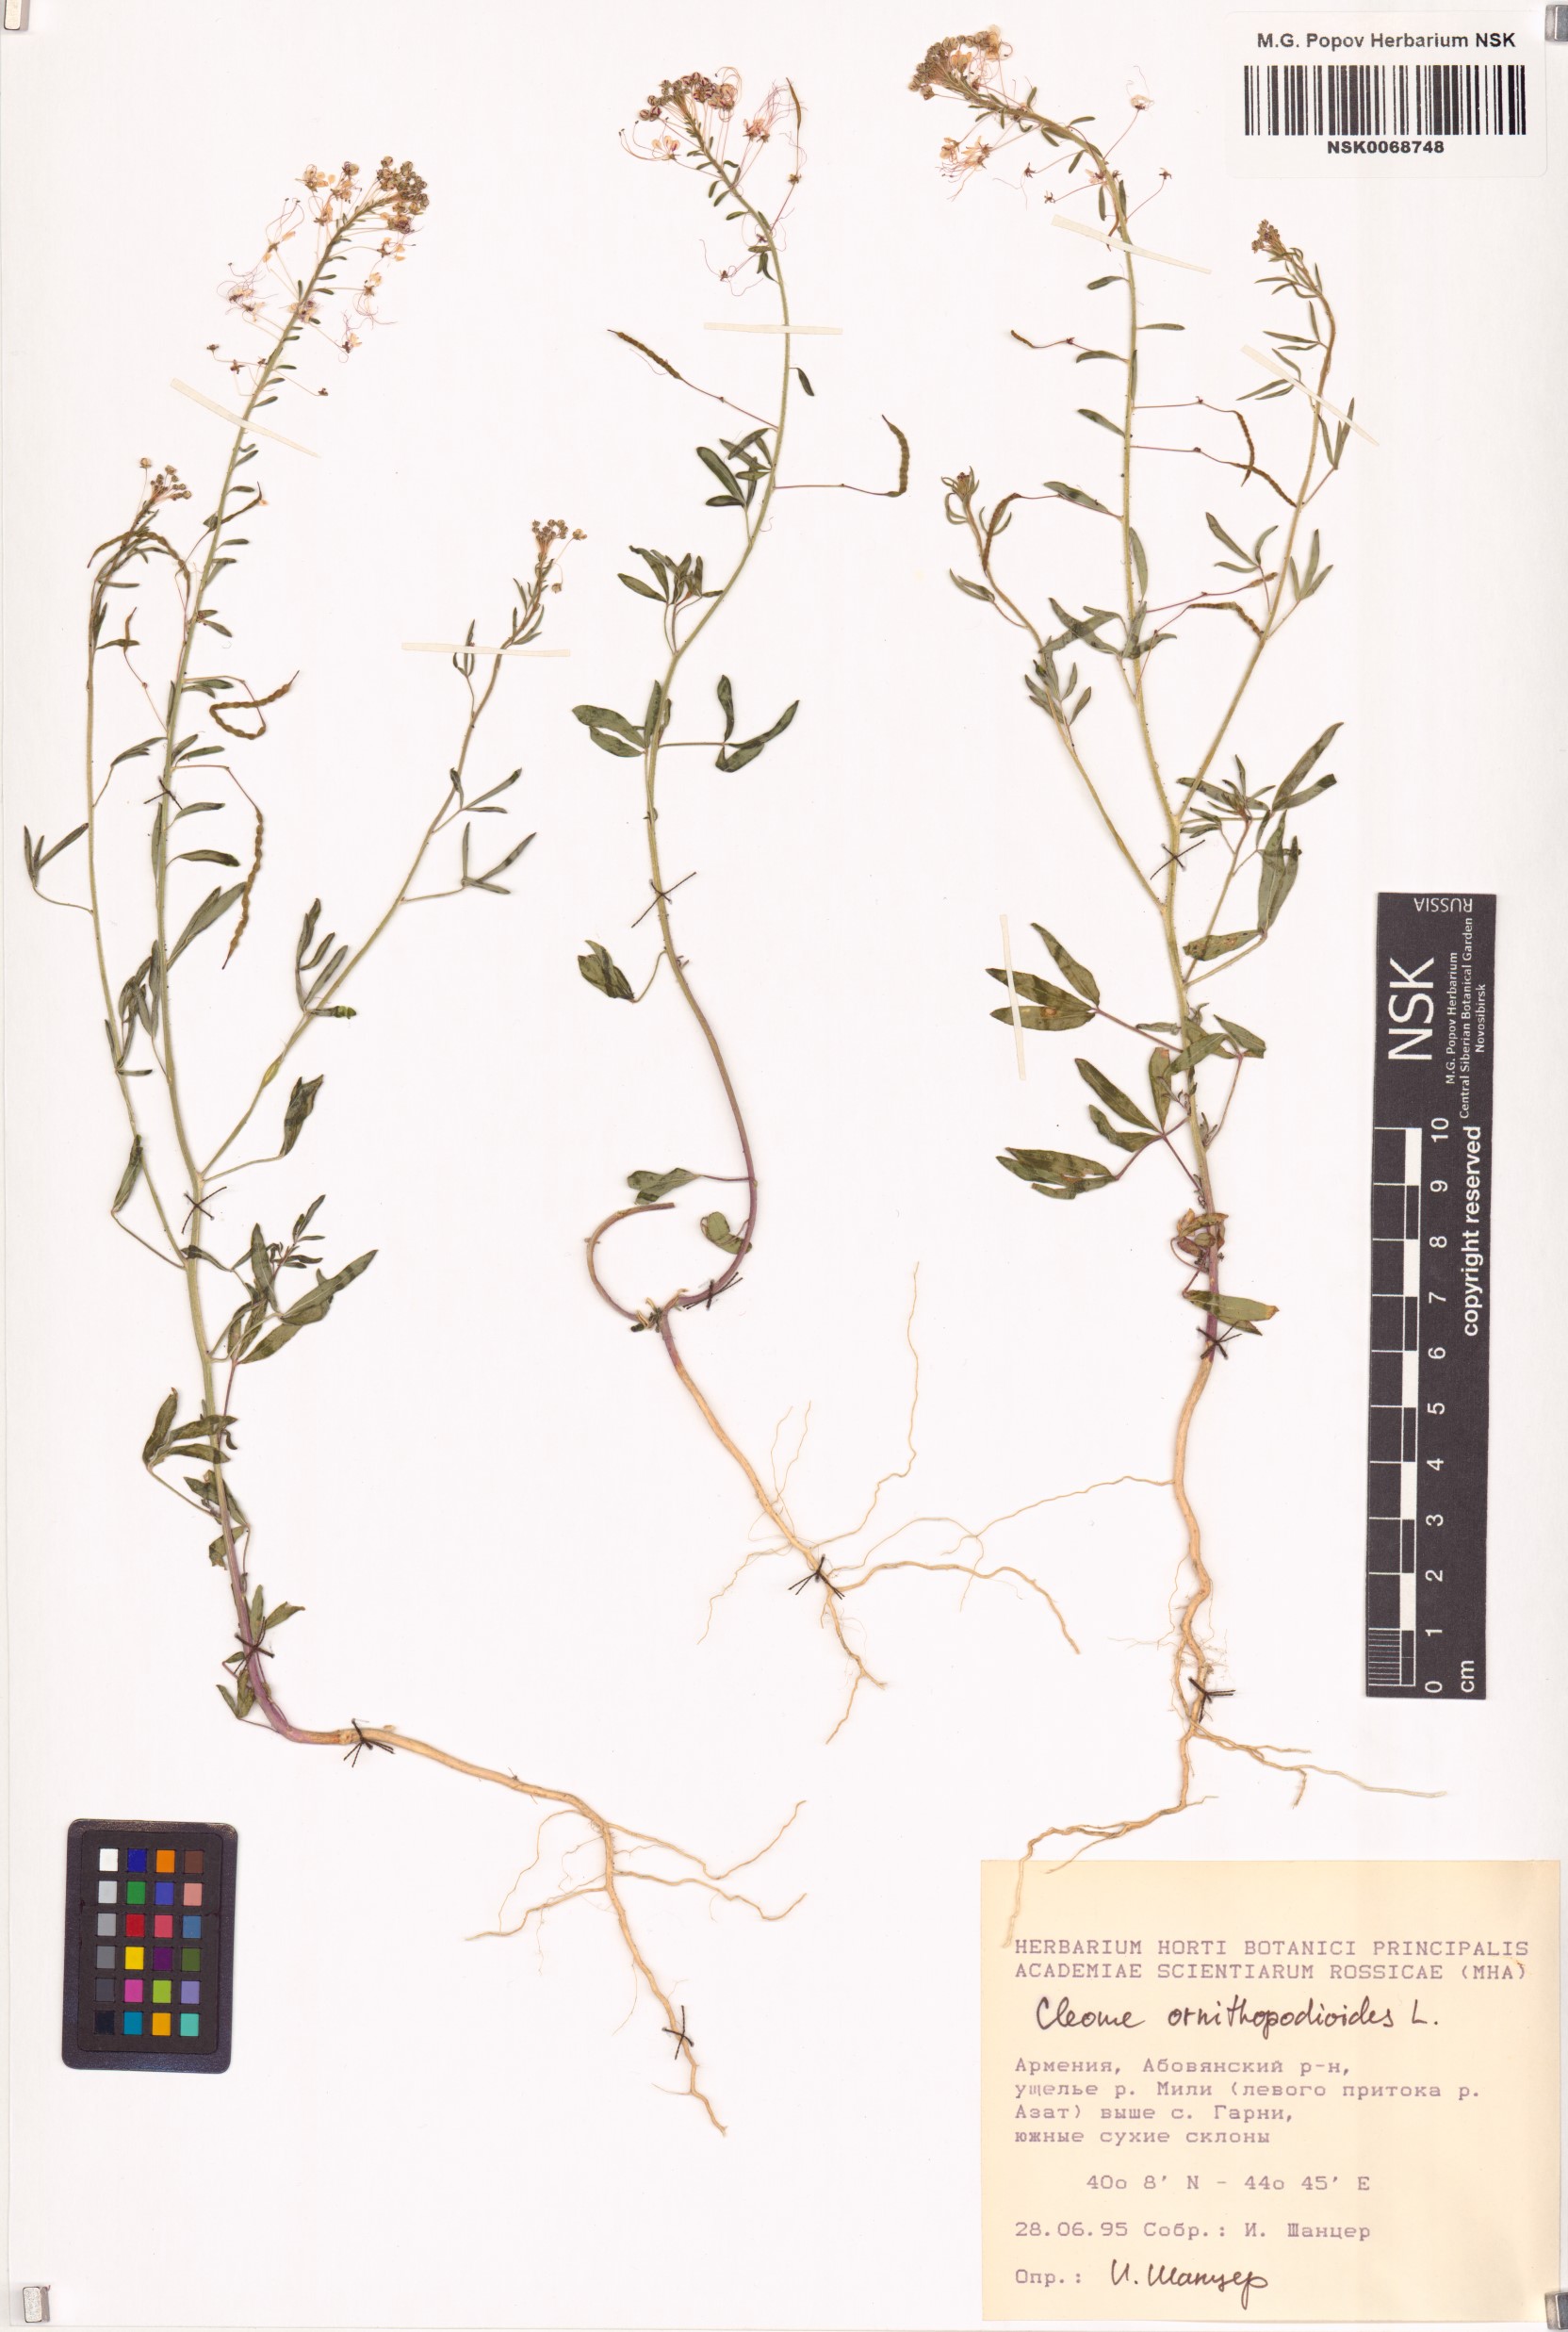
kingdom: Plantae
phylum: Tracheophyta
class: Magnoliopsida
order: Brassicales
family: Cleomaceae
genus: Cleome
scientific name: Cleome ornithopodioides
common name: Bird spiderflower
